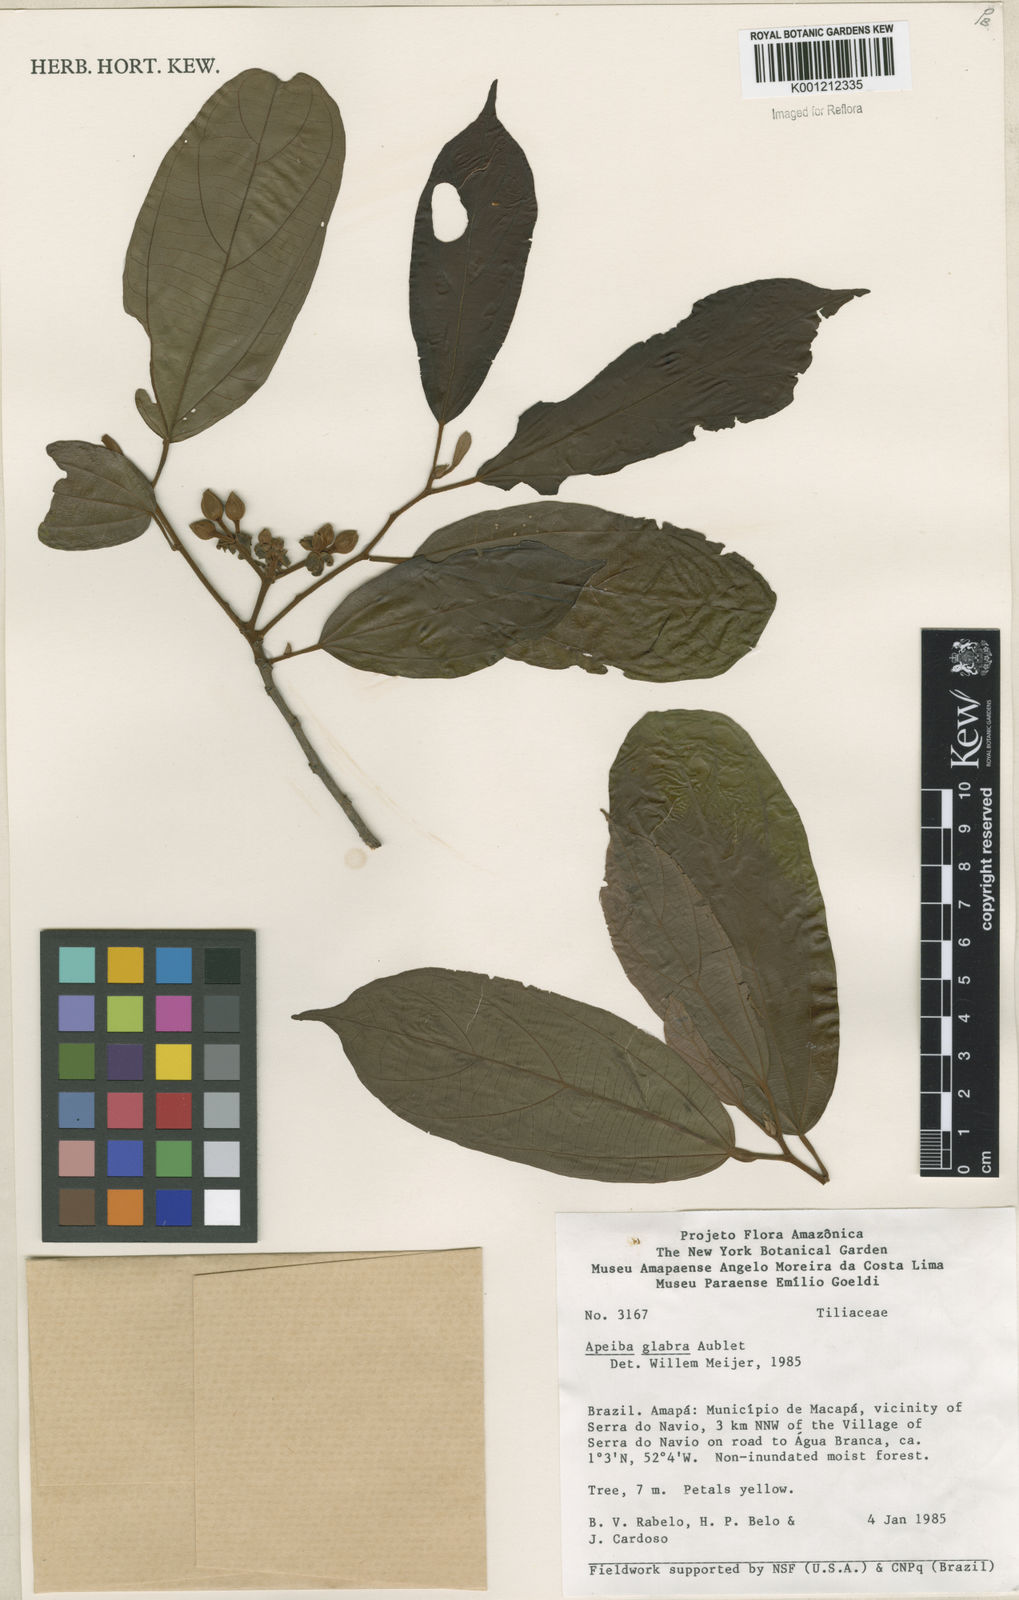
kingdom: Plantae
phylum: Tracheophyta
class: Magnoliopsida
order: Malvales
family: Malvaceae
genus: Apeiba
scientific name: Apeiba glabra
